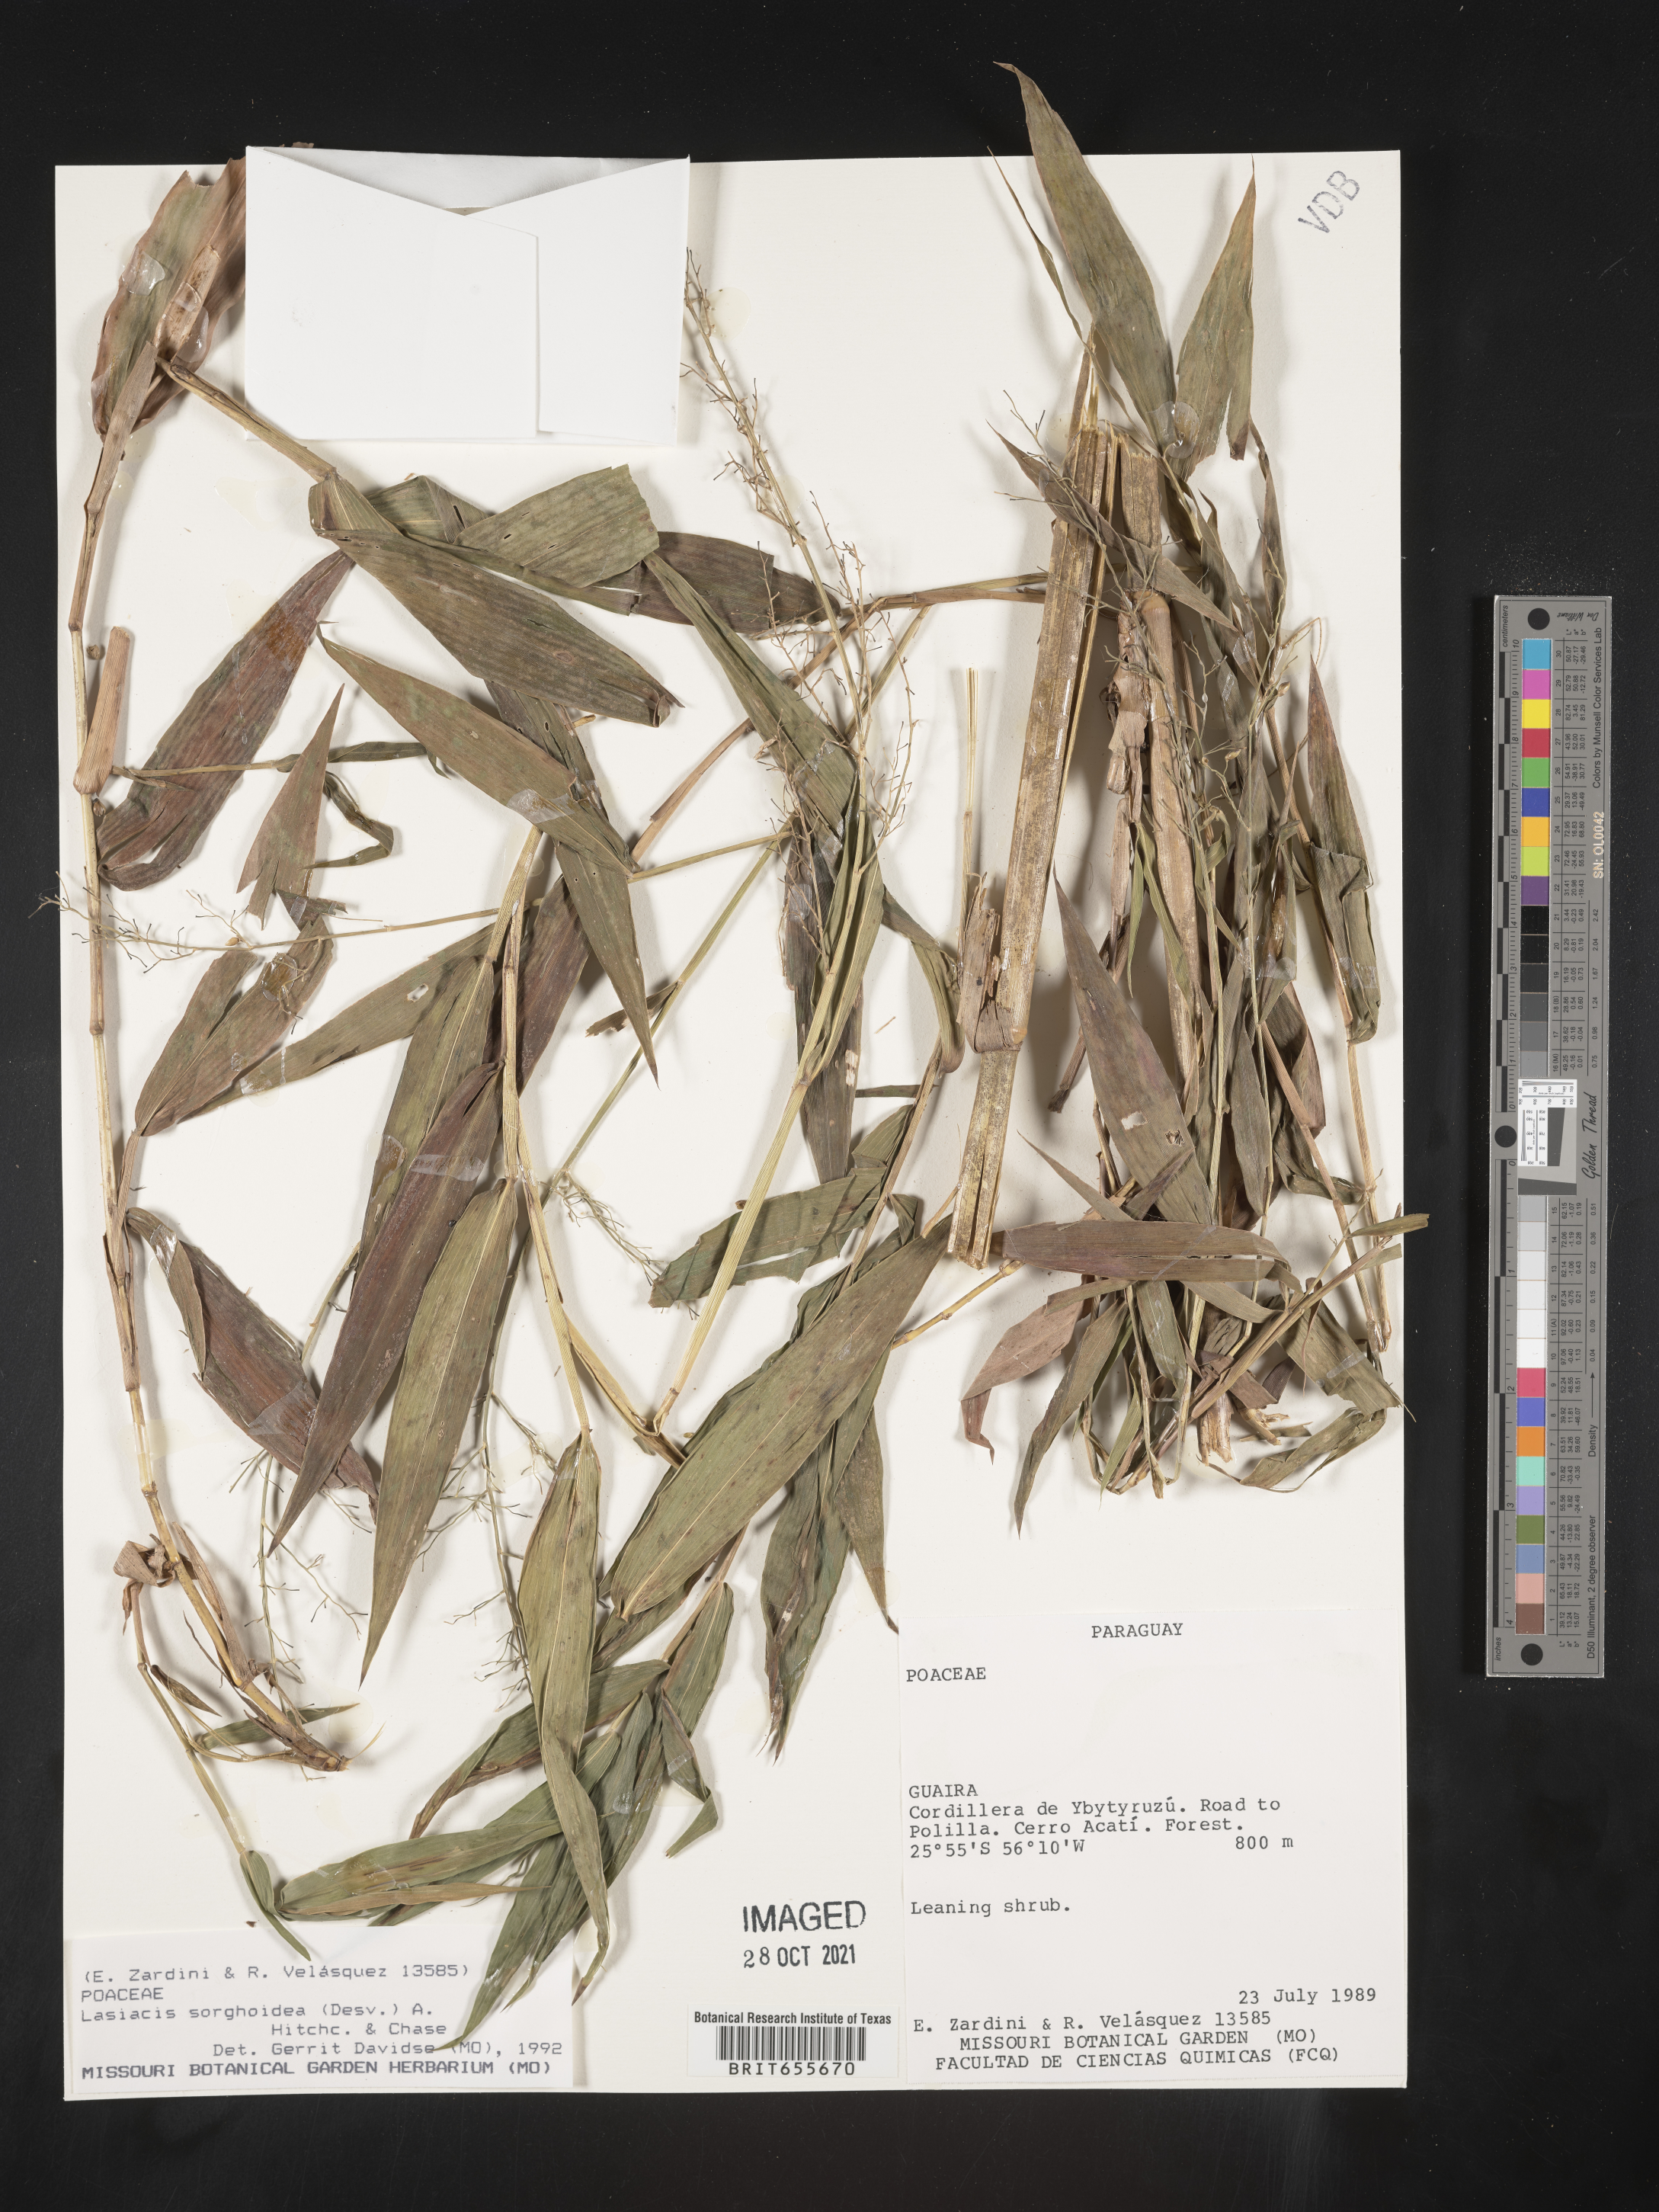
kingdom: Plantae
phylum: Tracheophyta
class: Liliopsida
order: Poales
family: Poaceae
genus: Lasiacis
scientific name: Lasiacis
